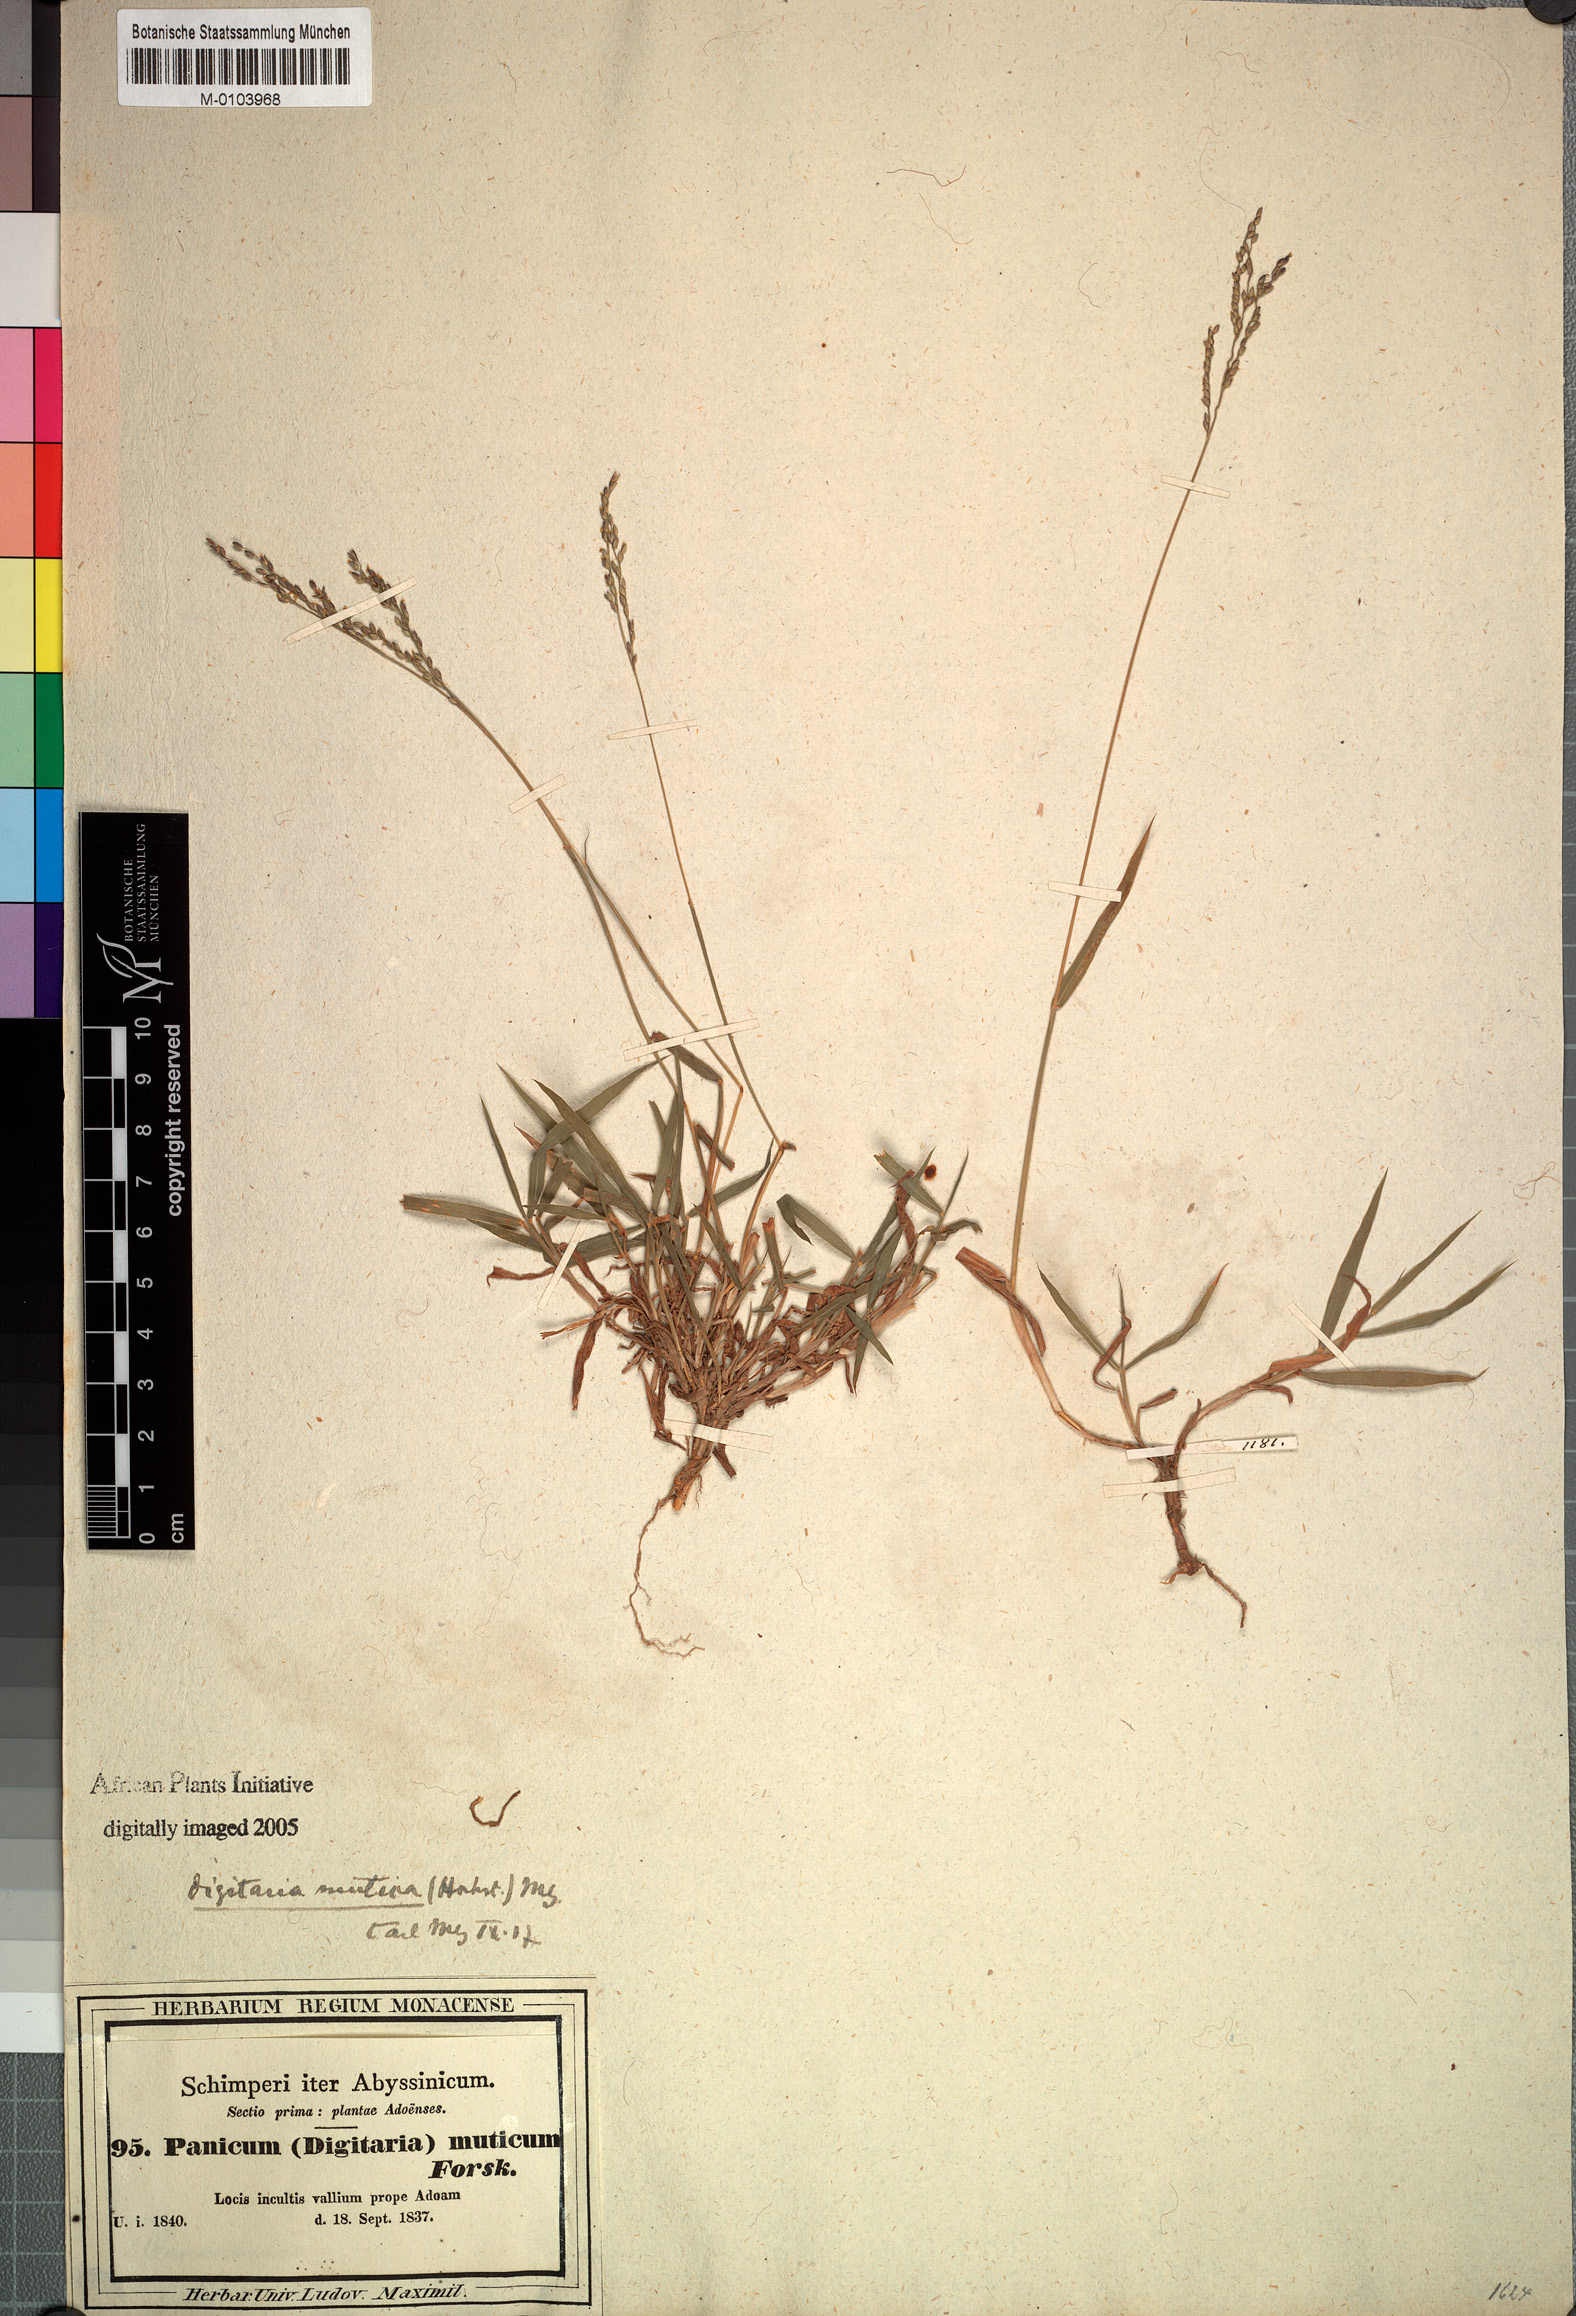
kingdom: Plantae
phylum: Tracheophyta
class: Liliopsida
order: Poales
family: Poaceae
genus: Digitaria
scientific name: Digitaria abyssinica
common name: African couchgrass
